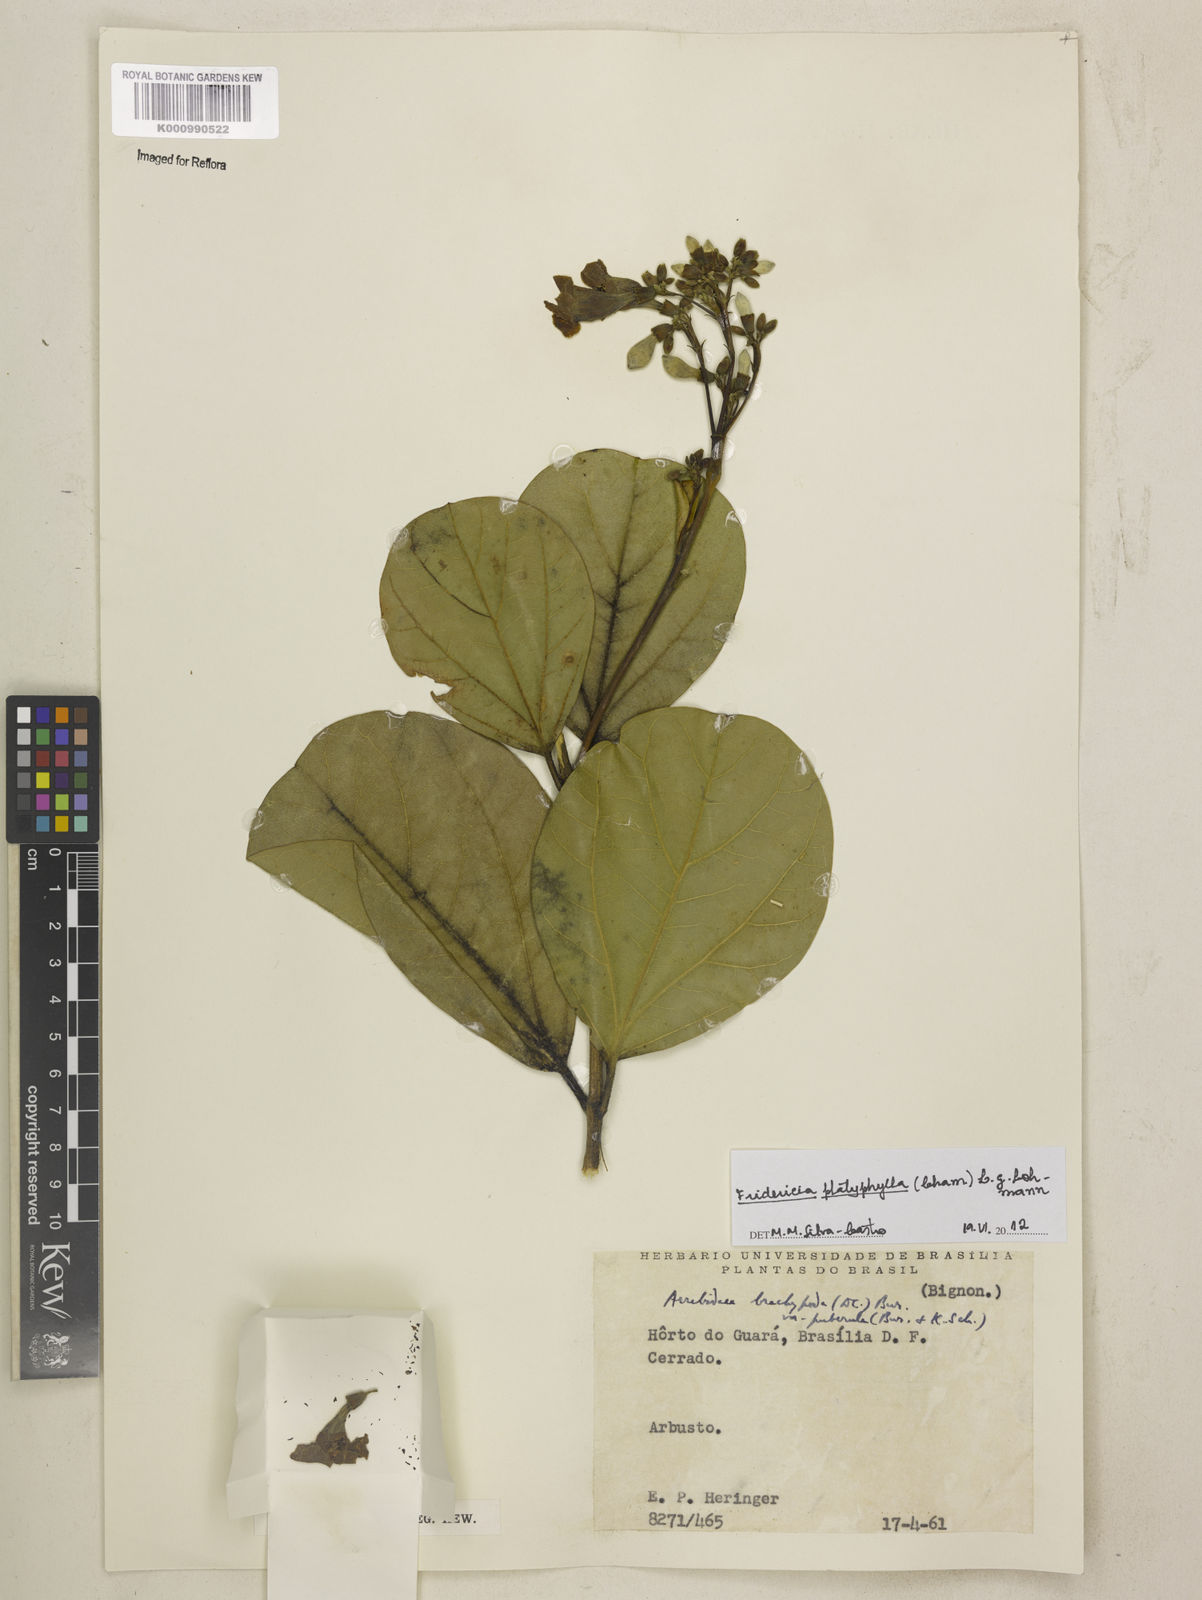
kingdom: Plantae
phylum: Tracheophyta
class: Magnoliopsida
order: Lamiales
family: Bignoniaceae
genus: Fridericia
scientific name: Fridericia platyphylla
